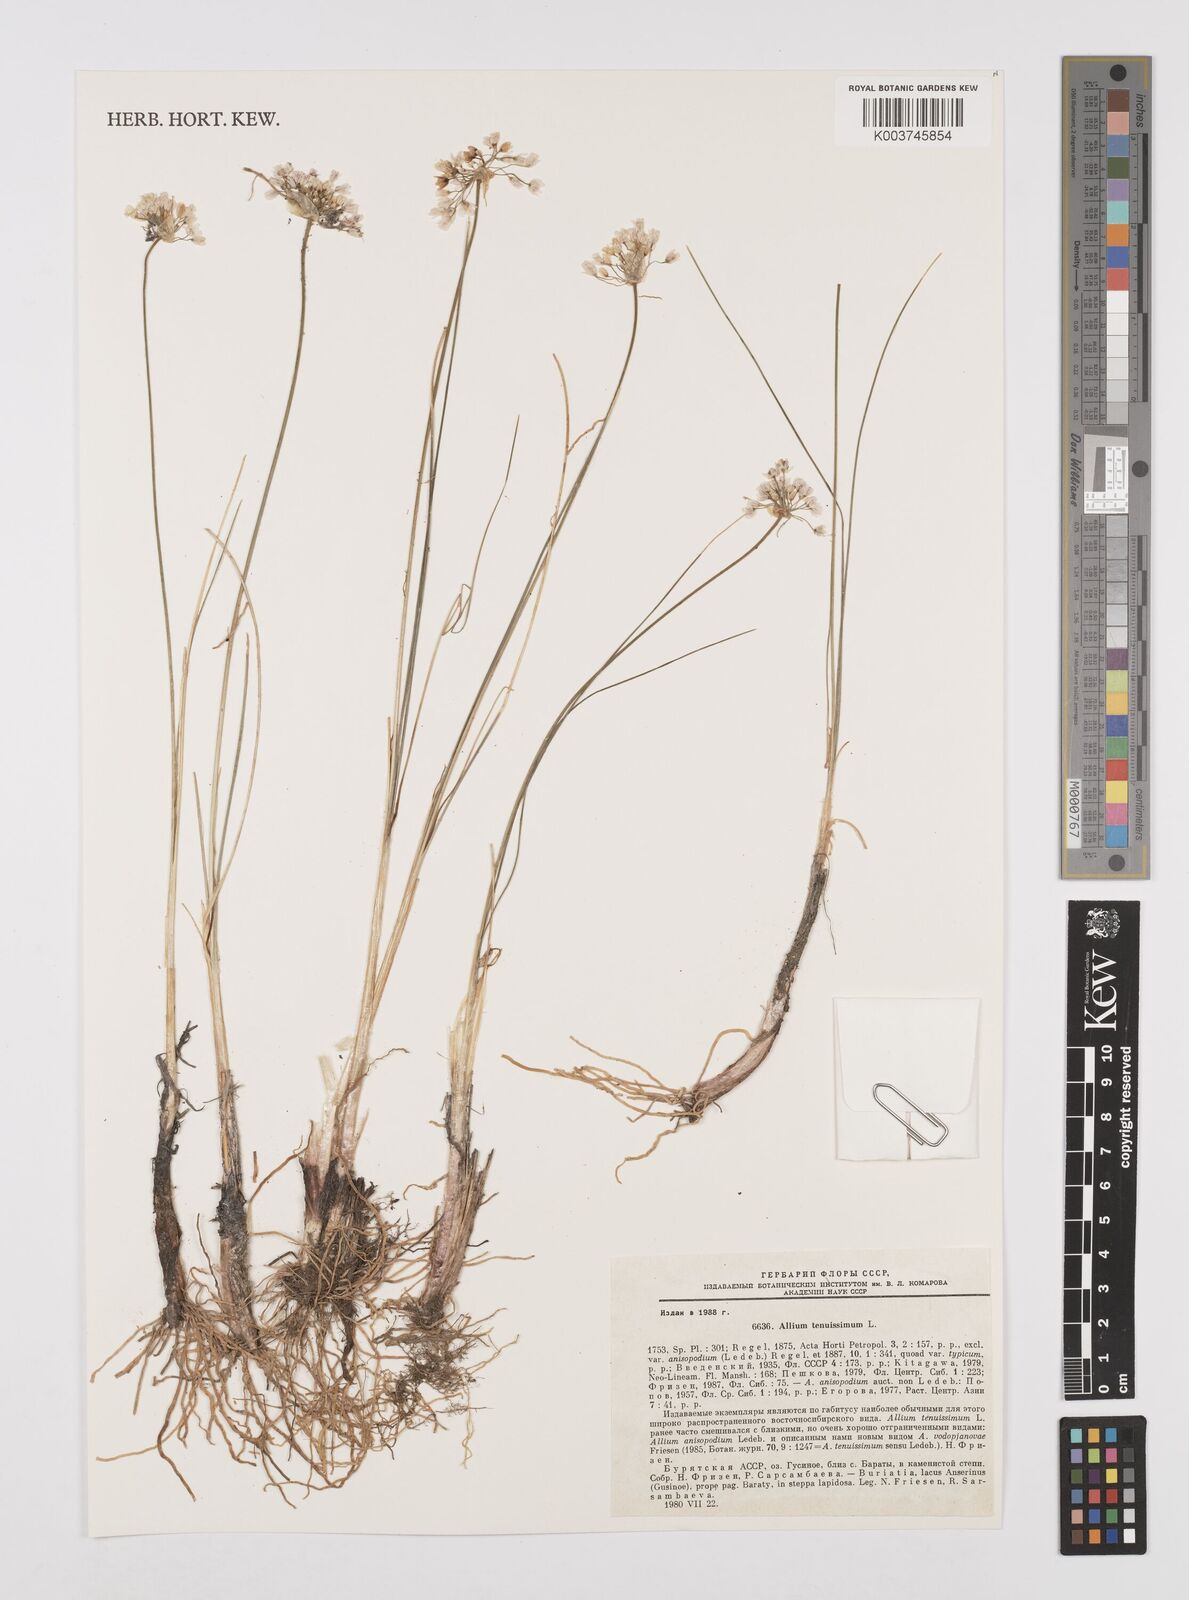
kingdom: Plantae
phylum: Tracheophyta
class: Liliopsida
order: Asparagales
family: Amaryllidaceae
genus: Allium
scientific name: Allium tenuissimum
